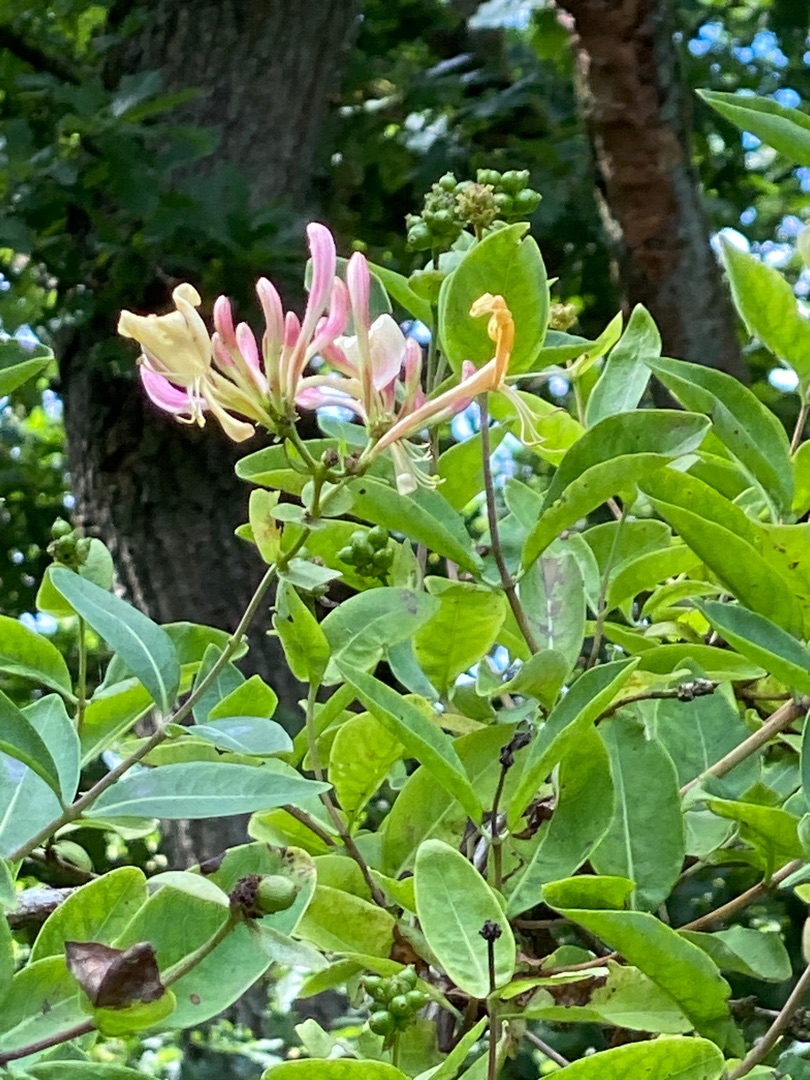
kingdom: Plantae
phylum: Tracheophyta
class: Magnoliopsida
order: Dipsacales
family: Caprifoliaceae
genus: Lonicera
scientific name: Lonicera periclymenum
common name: Almindelig gedeblad
